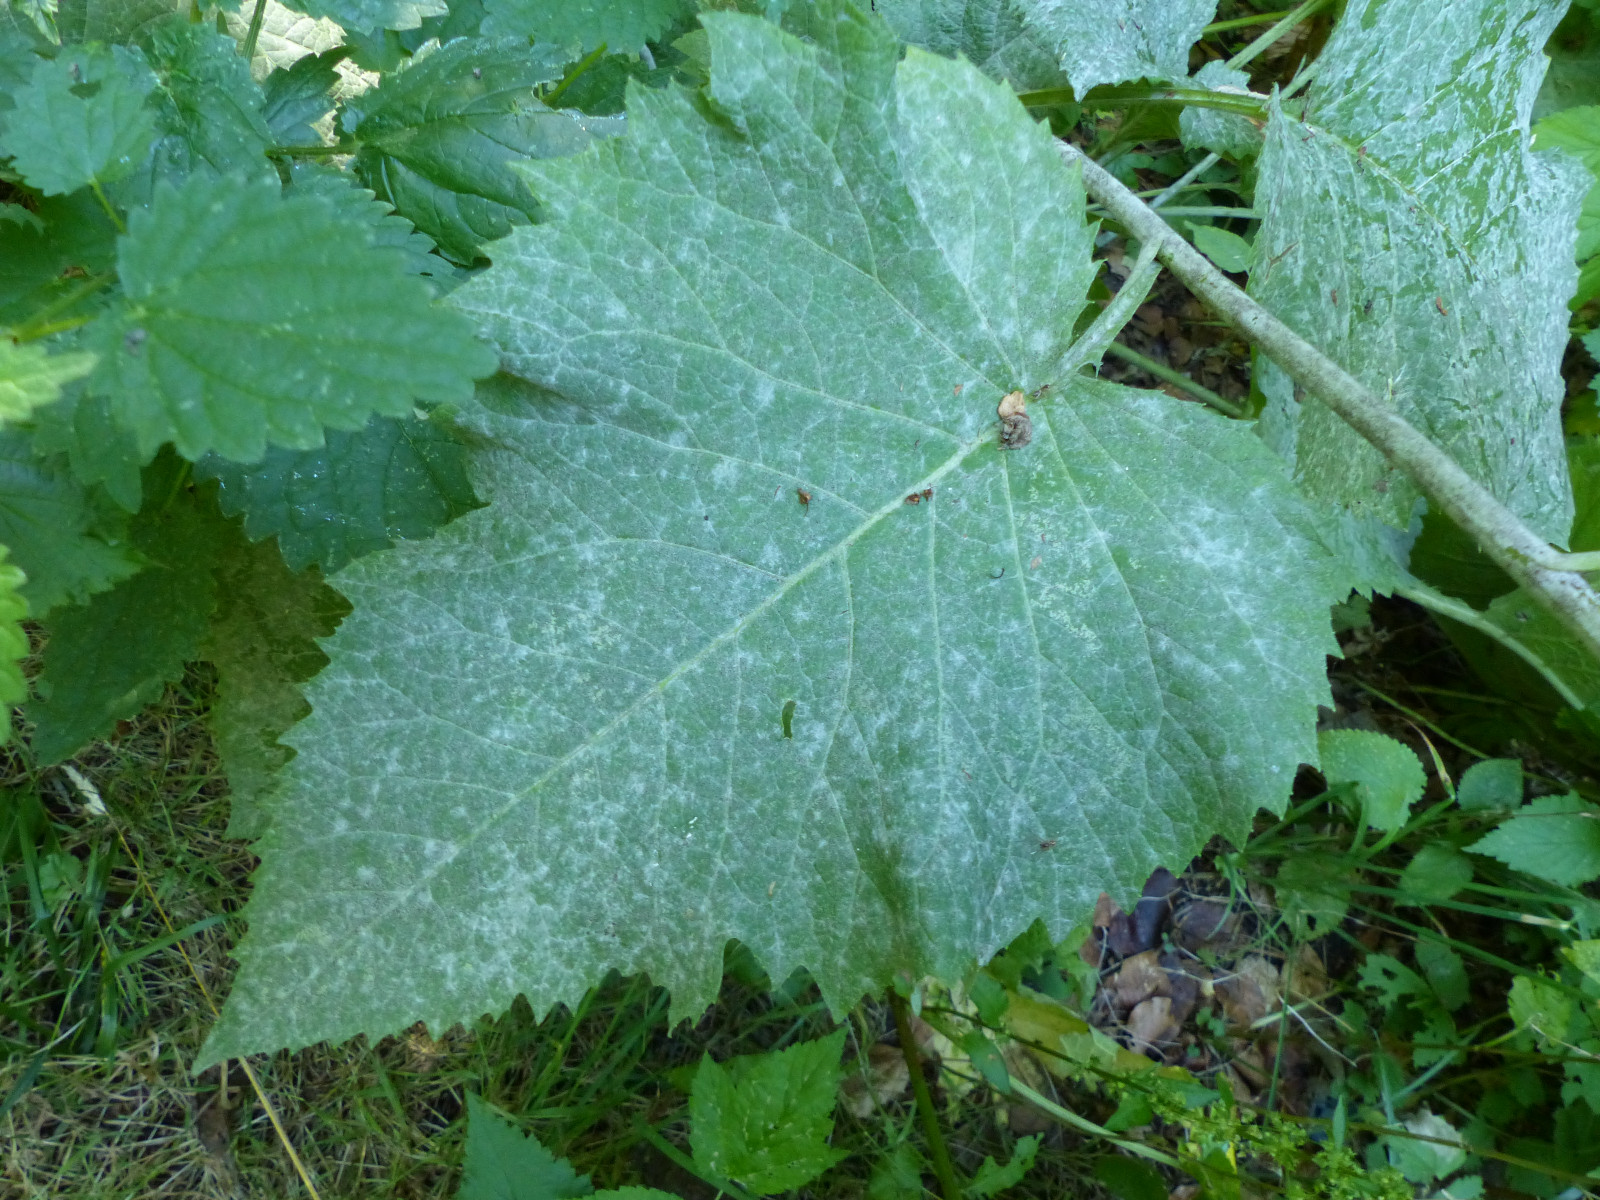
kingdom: Fungi
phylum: Ascomycota
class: Leotiomycetes
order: Helotiales
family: Erysiphaceae
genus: Golovinomyces
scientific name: Golovinomyces inulae
